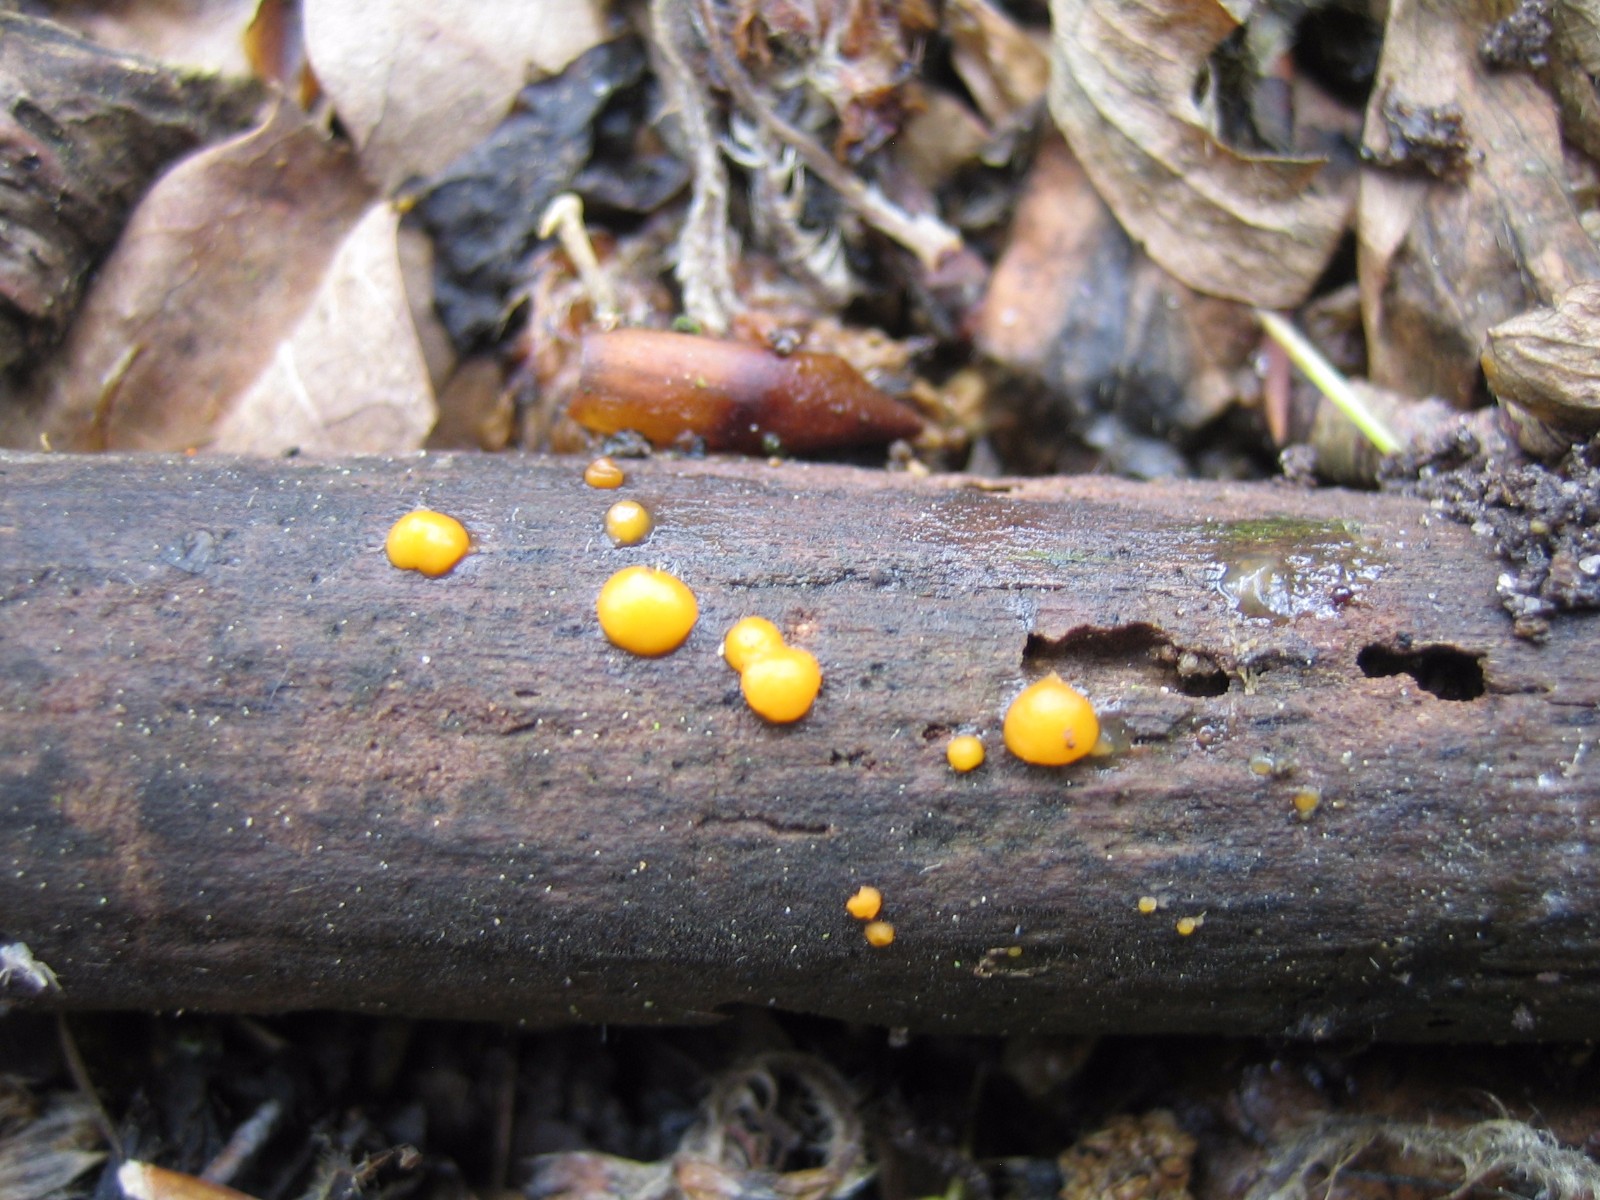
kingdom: Fungi
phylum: Basidiomycota
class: Dacrymycetes
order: Dacrymycetales
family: Dacrymycetaceae
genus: Dacrymyces
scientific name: Dacrymyces stillatus
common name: almindelig tåresvamp
